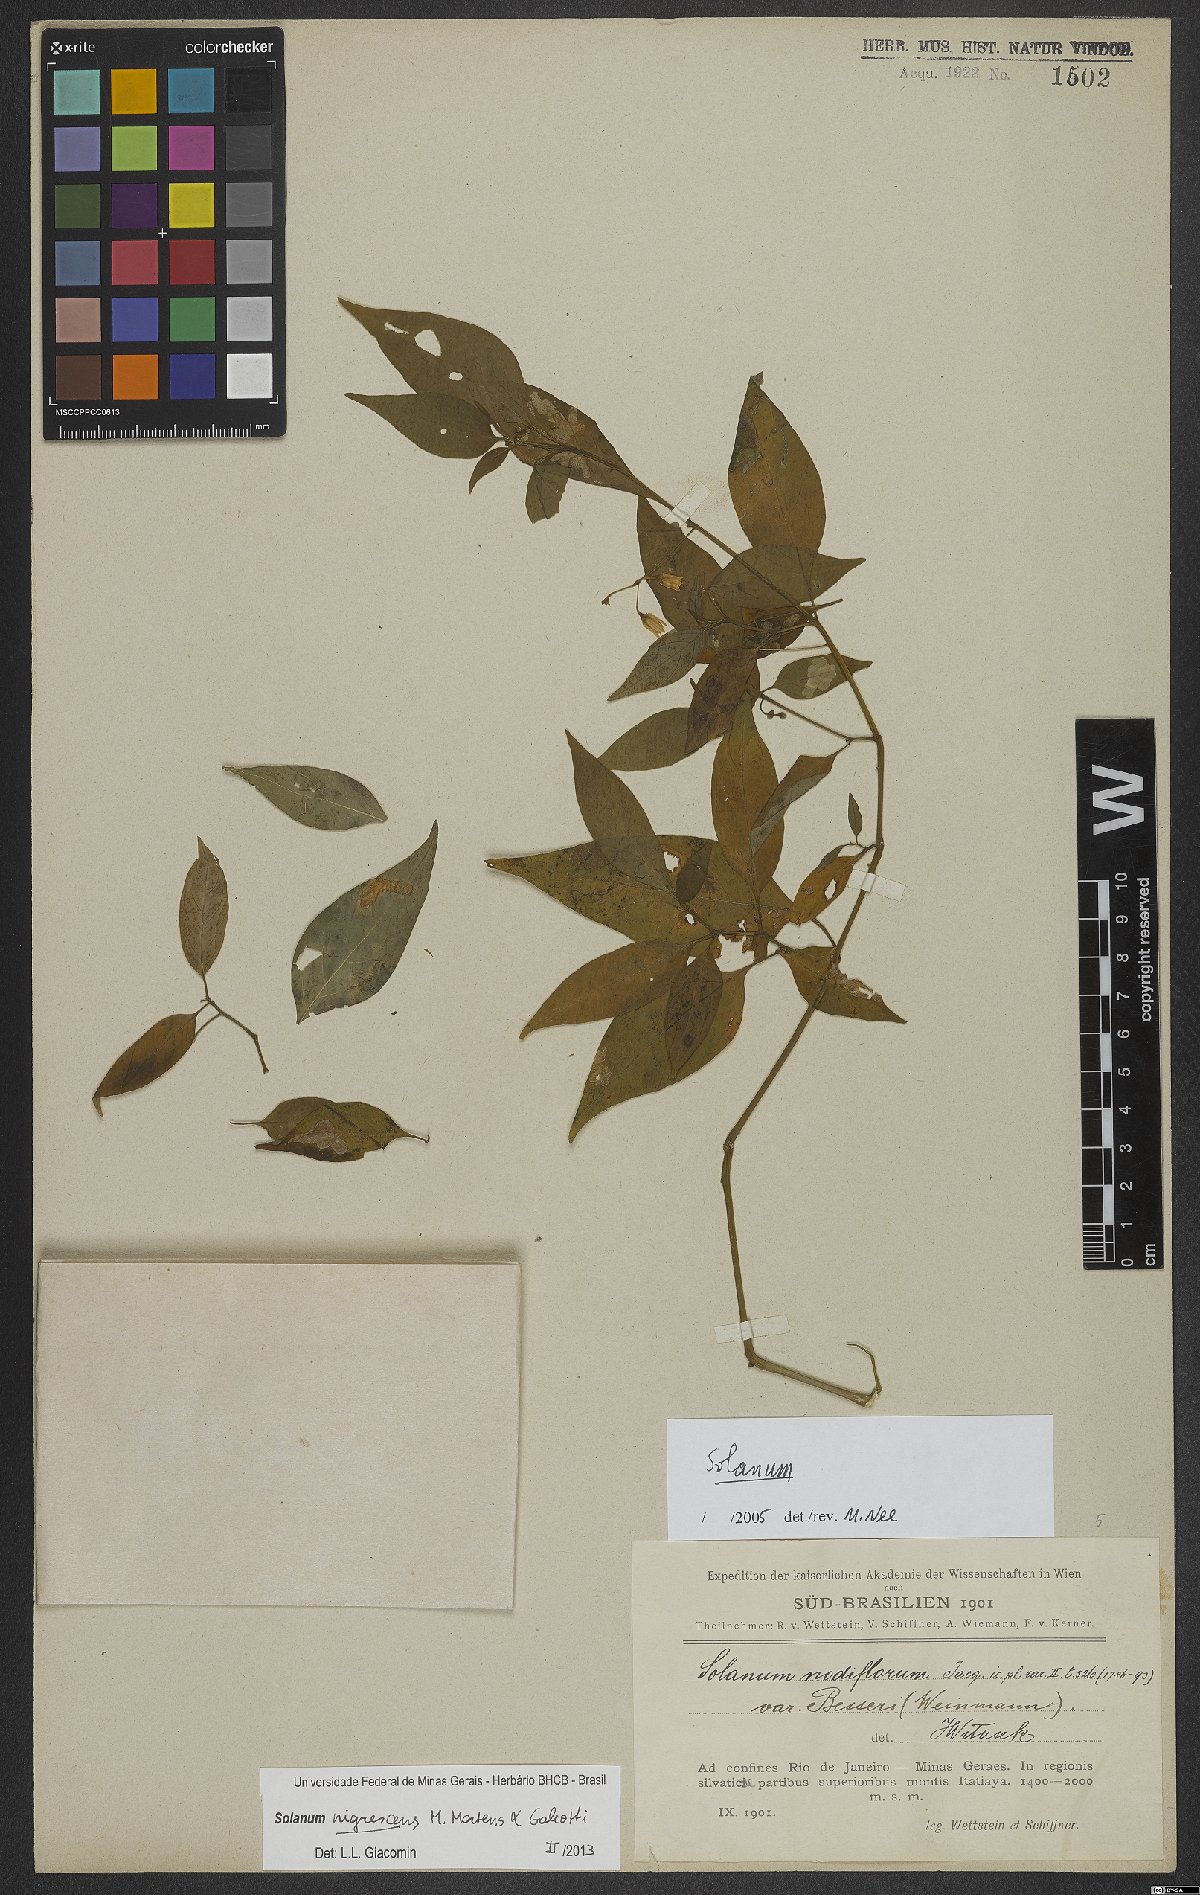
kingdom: Plantae
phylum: Tracheophyta
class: Magnoliopsida
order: Solanales
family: Solanaceae
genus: Solanum
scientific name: Solanum enantiophyllanthum
